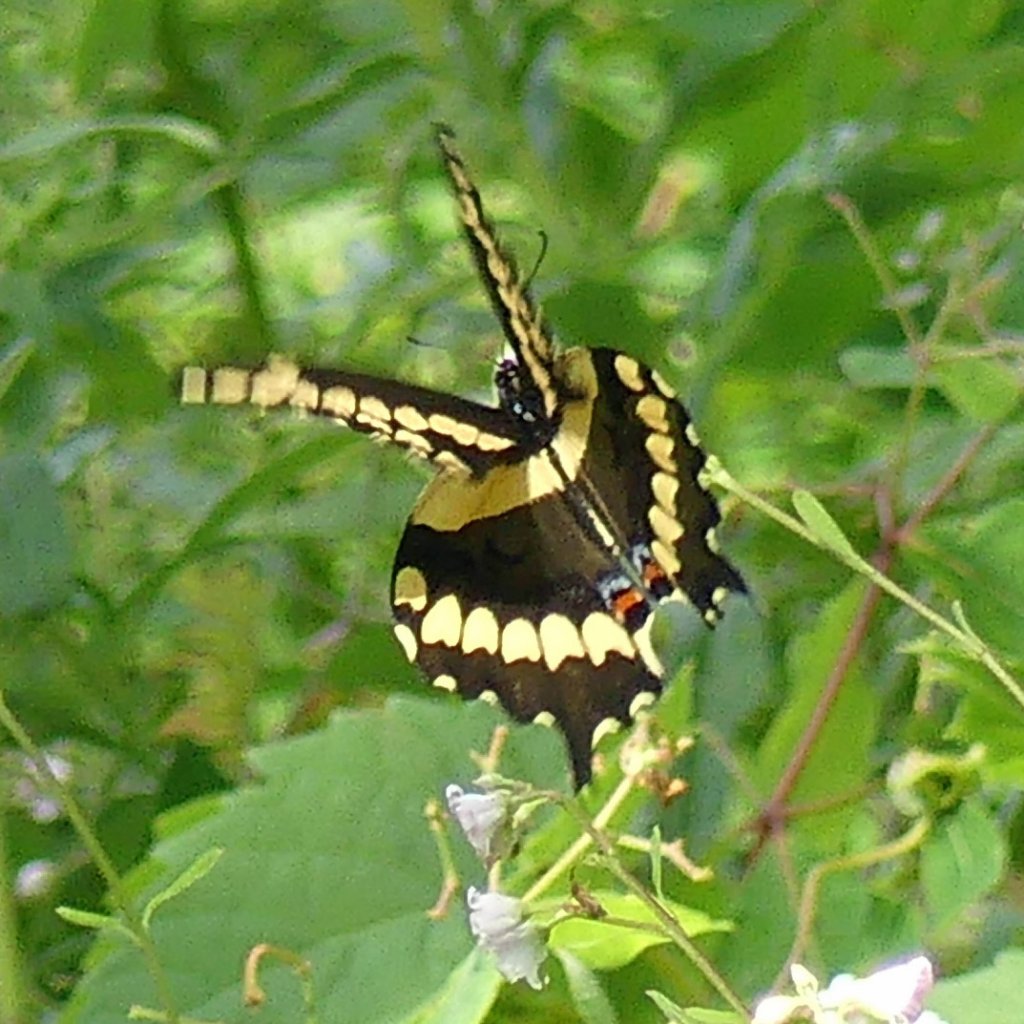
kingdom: Animalia
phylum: Arthropoda
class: Insecta
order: Lepidoptera
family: Papilionidae
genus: Papilio
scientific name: Papilio cresphontes
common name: Eastern Giant Swallowtail
